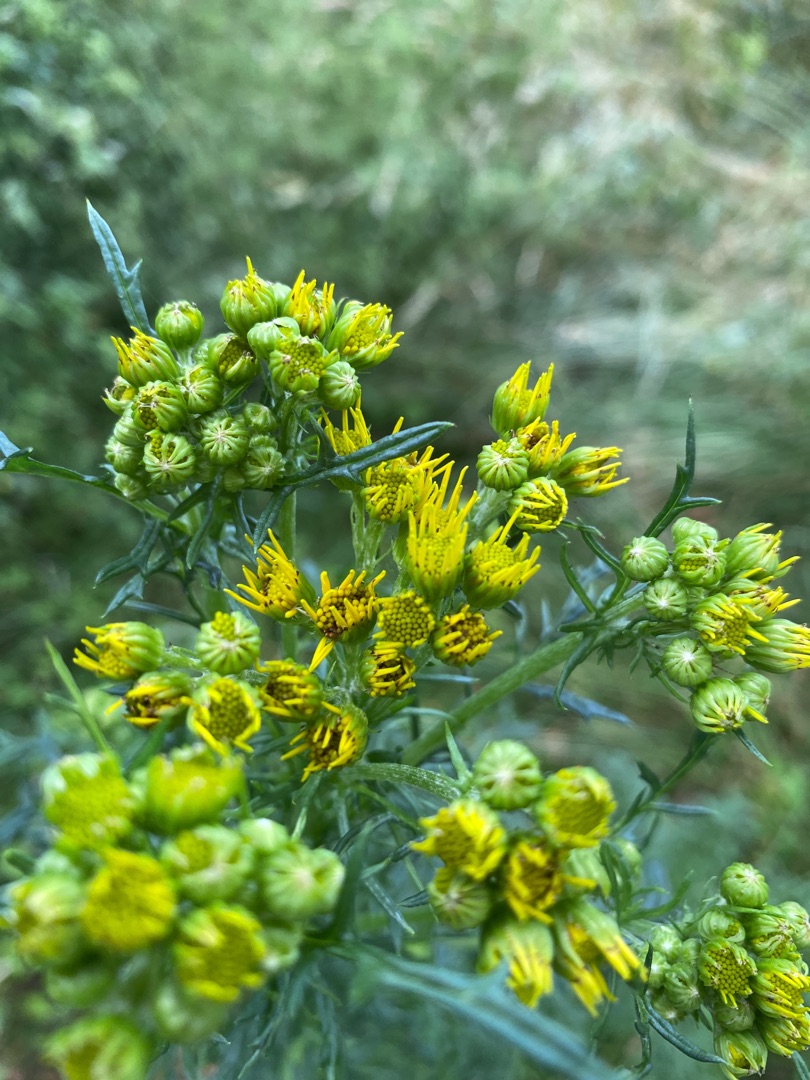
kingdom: Plantae
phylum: Tracheophyta
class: Magnoliopsida
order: Asterales
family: Asteraceae
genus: Jacobaea
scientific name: Jacobaea vulgaris
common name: Eng-brandbæger
